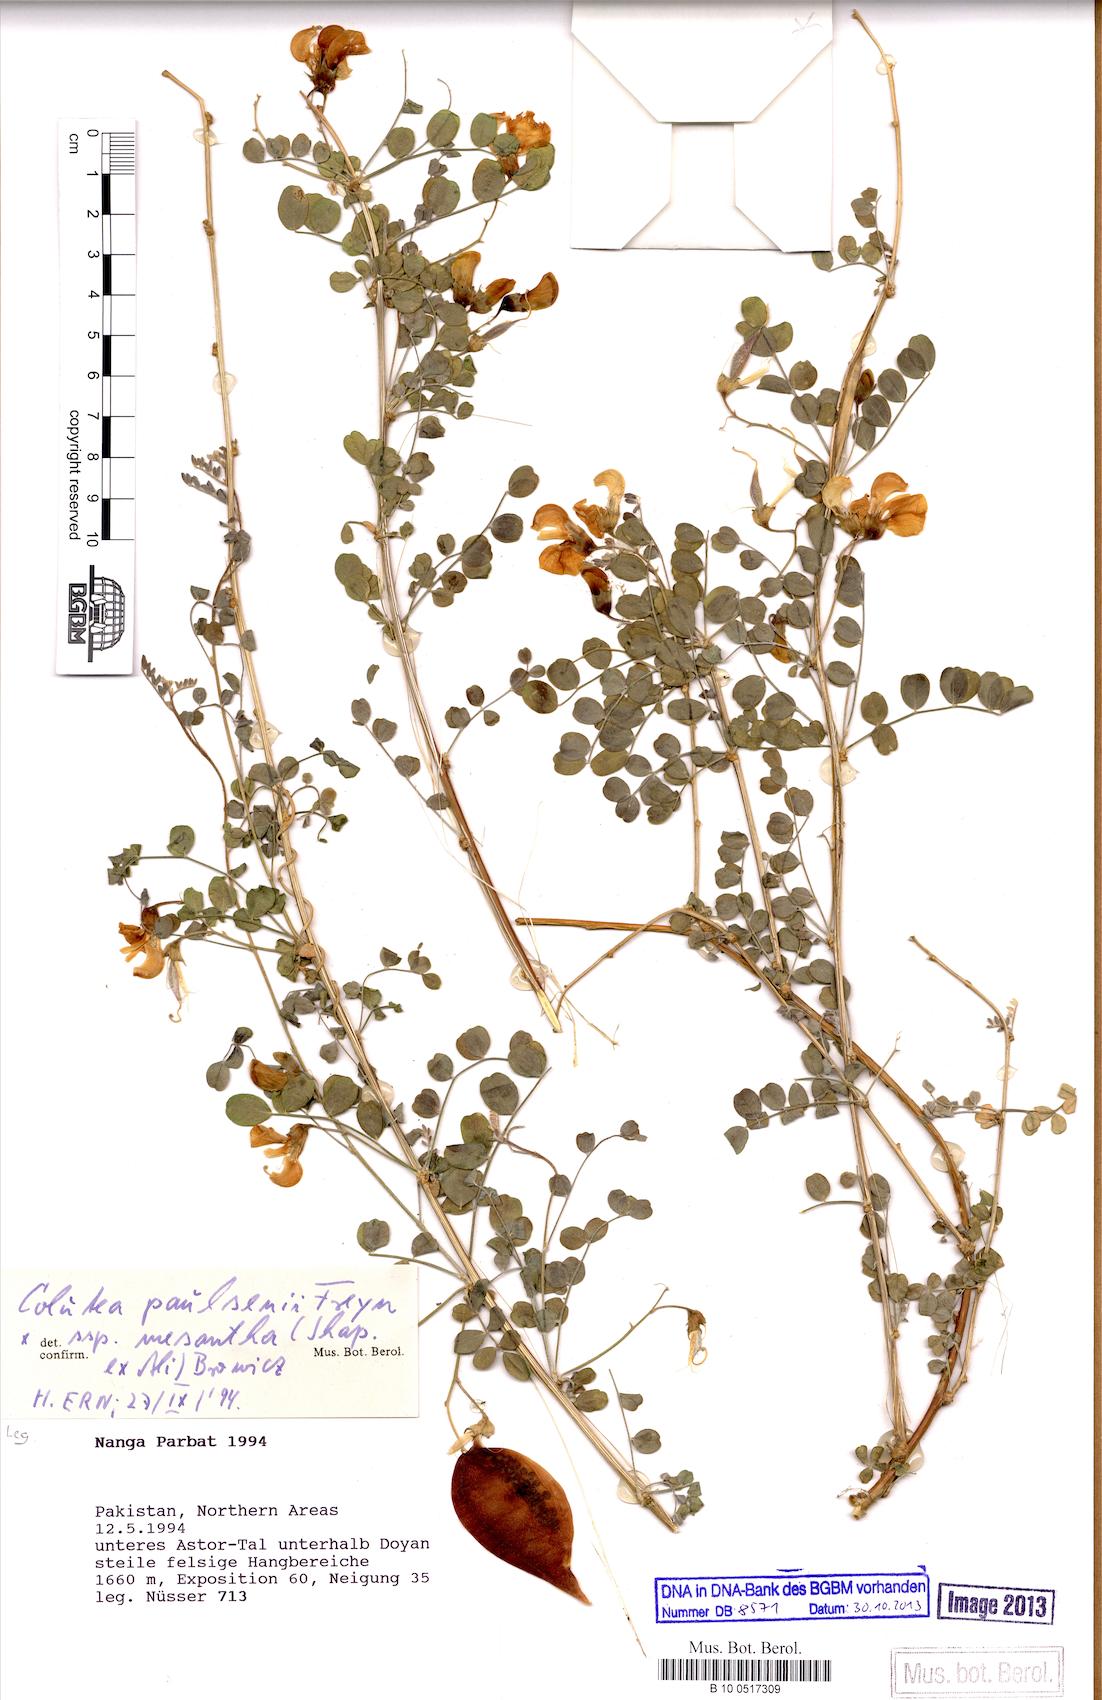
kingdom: Plantae
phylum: Tracheophyta
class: Magnoliopsida
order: Fabales
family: Fabaceae
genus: Colutea
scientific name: Colutea paulsenii
